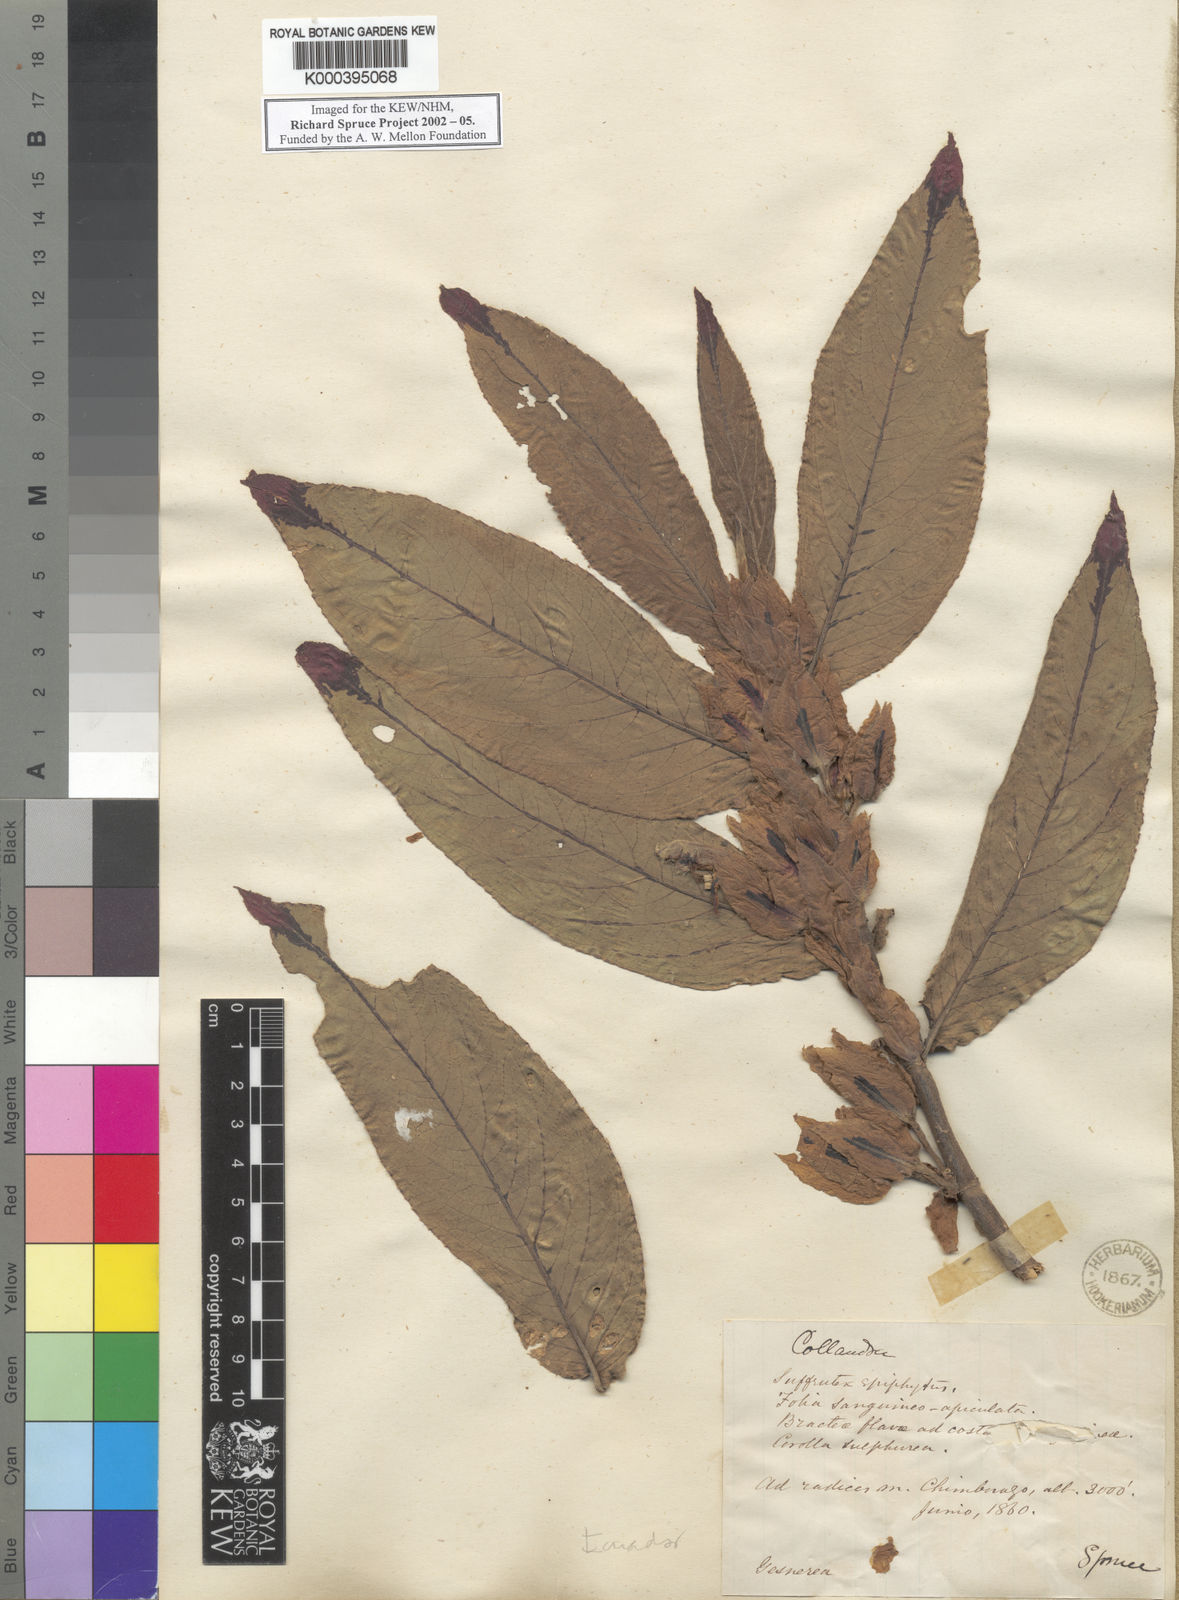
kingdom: Plantae
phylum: Tracheophyta
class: Magnoliopsida
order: Lamiales
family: Gesneriaceae
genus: Columnea
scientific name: Columnea picta
